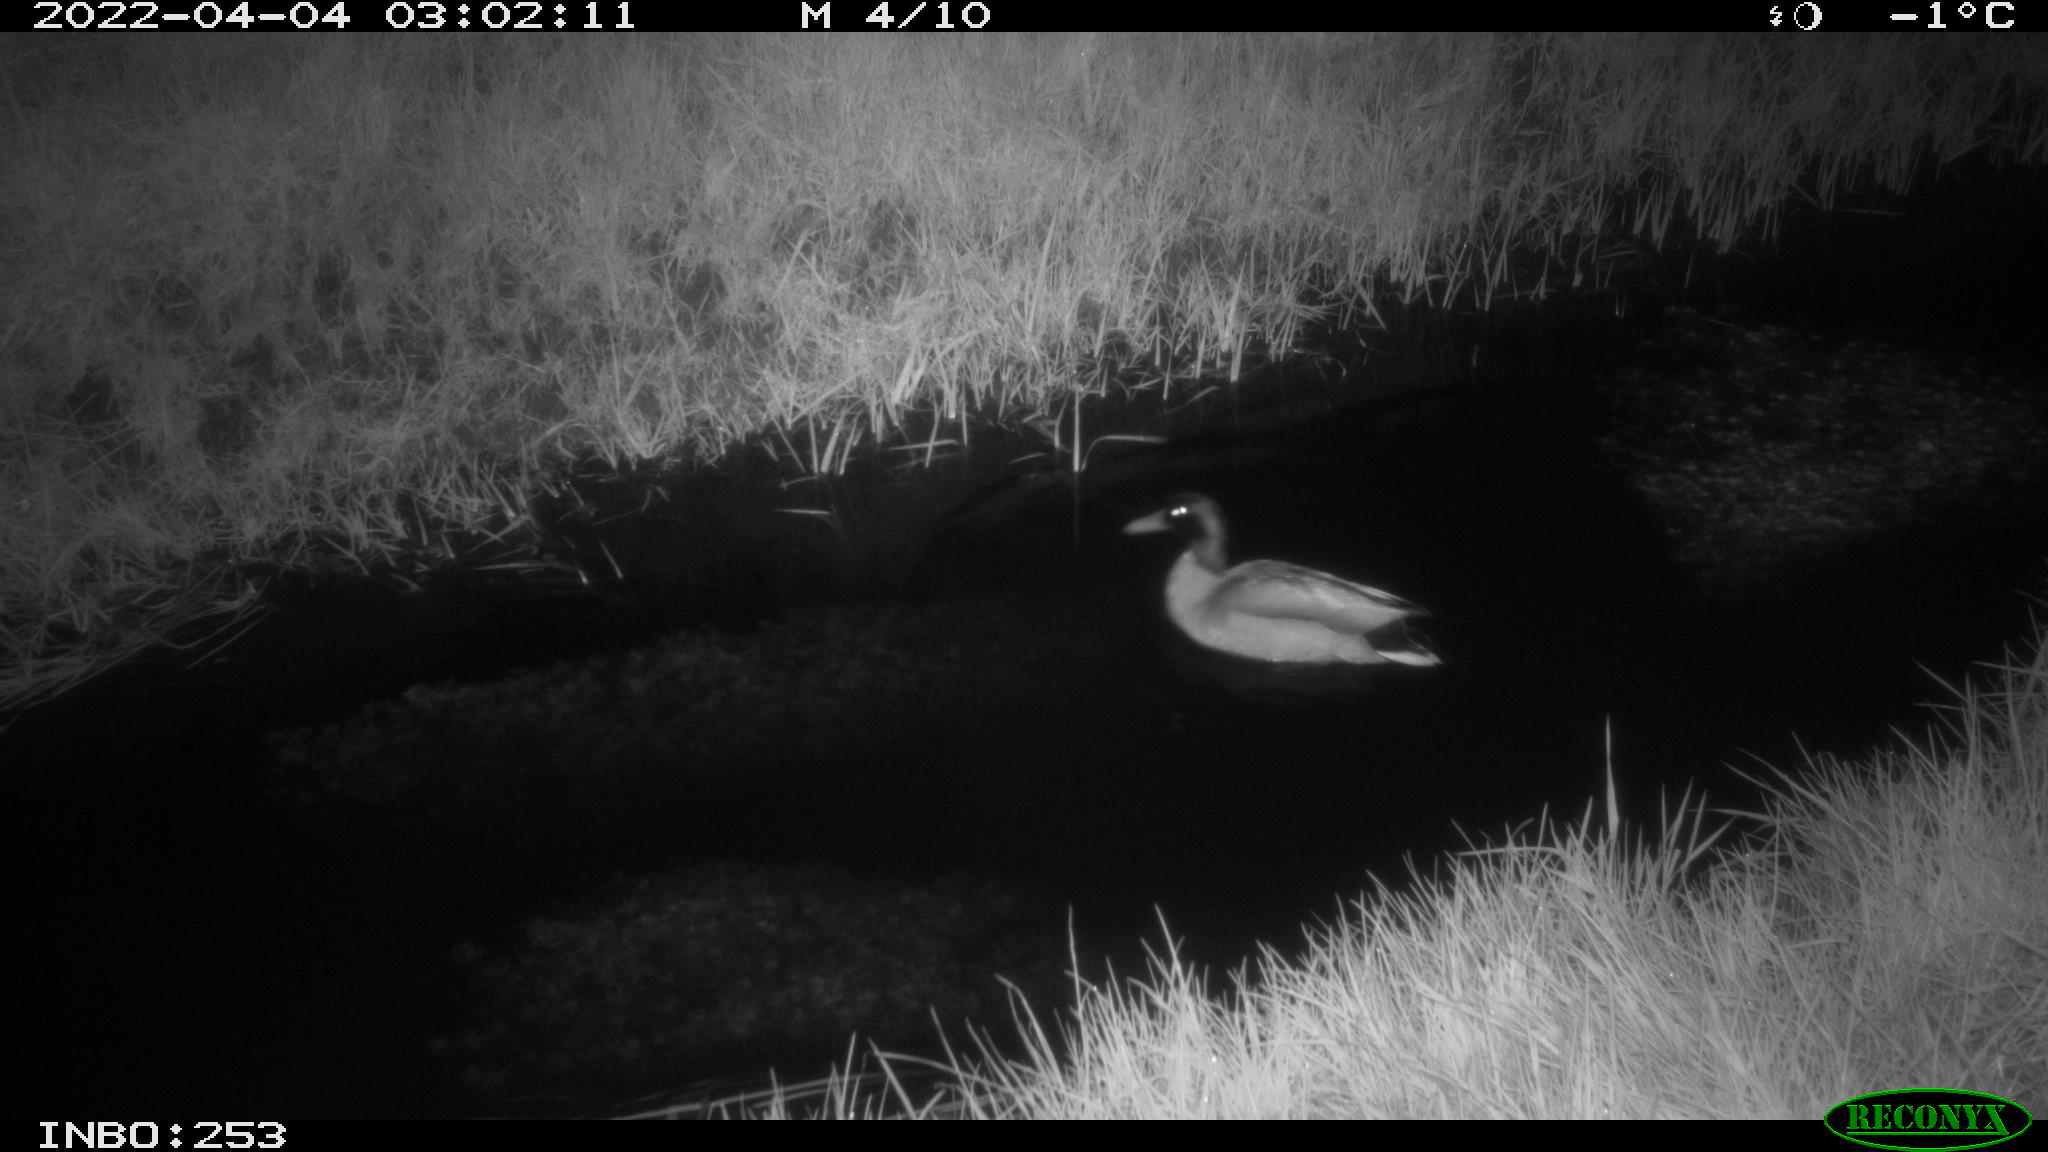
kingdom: Animalia
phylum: Chordata
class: Aves
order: Anseriformes
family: Anatidae
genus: Anas
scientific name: Anas platyrhynchos
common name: Mallard
